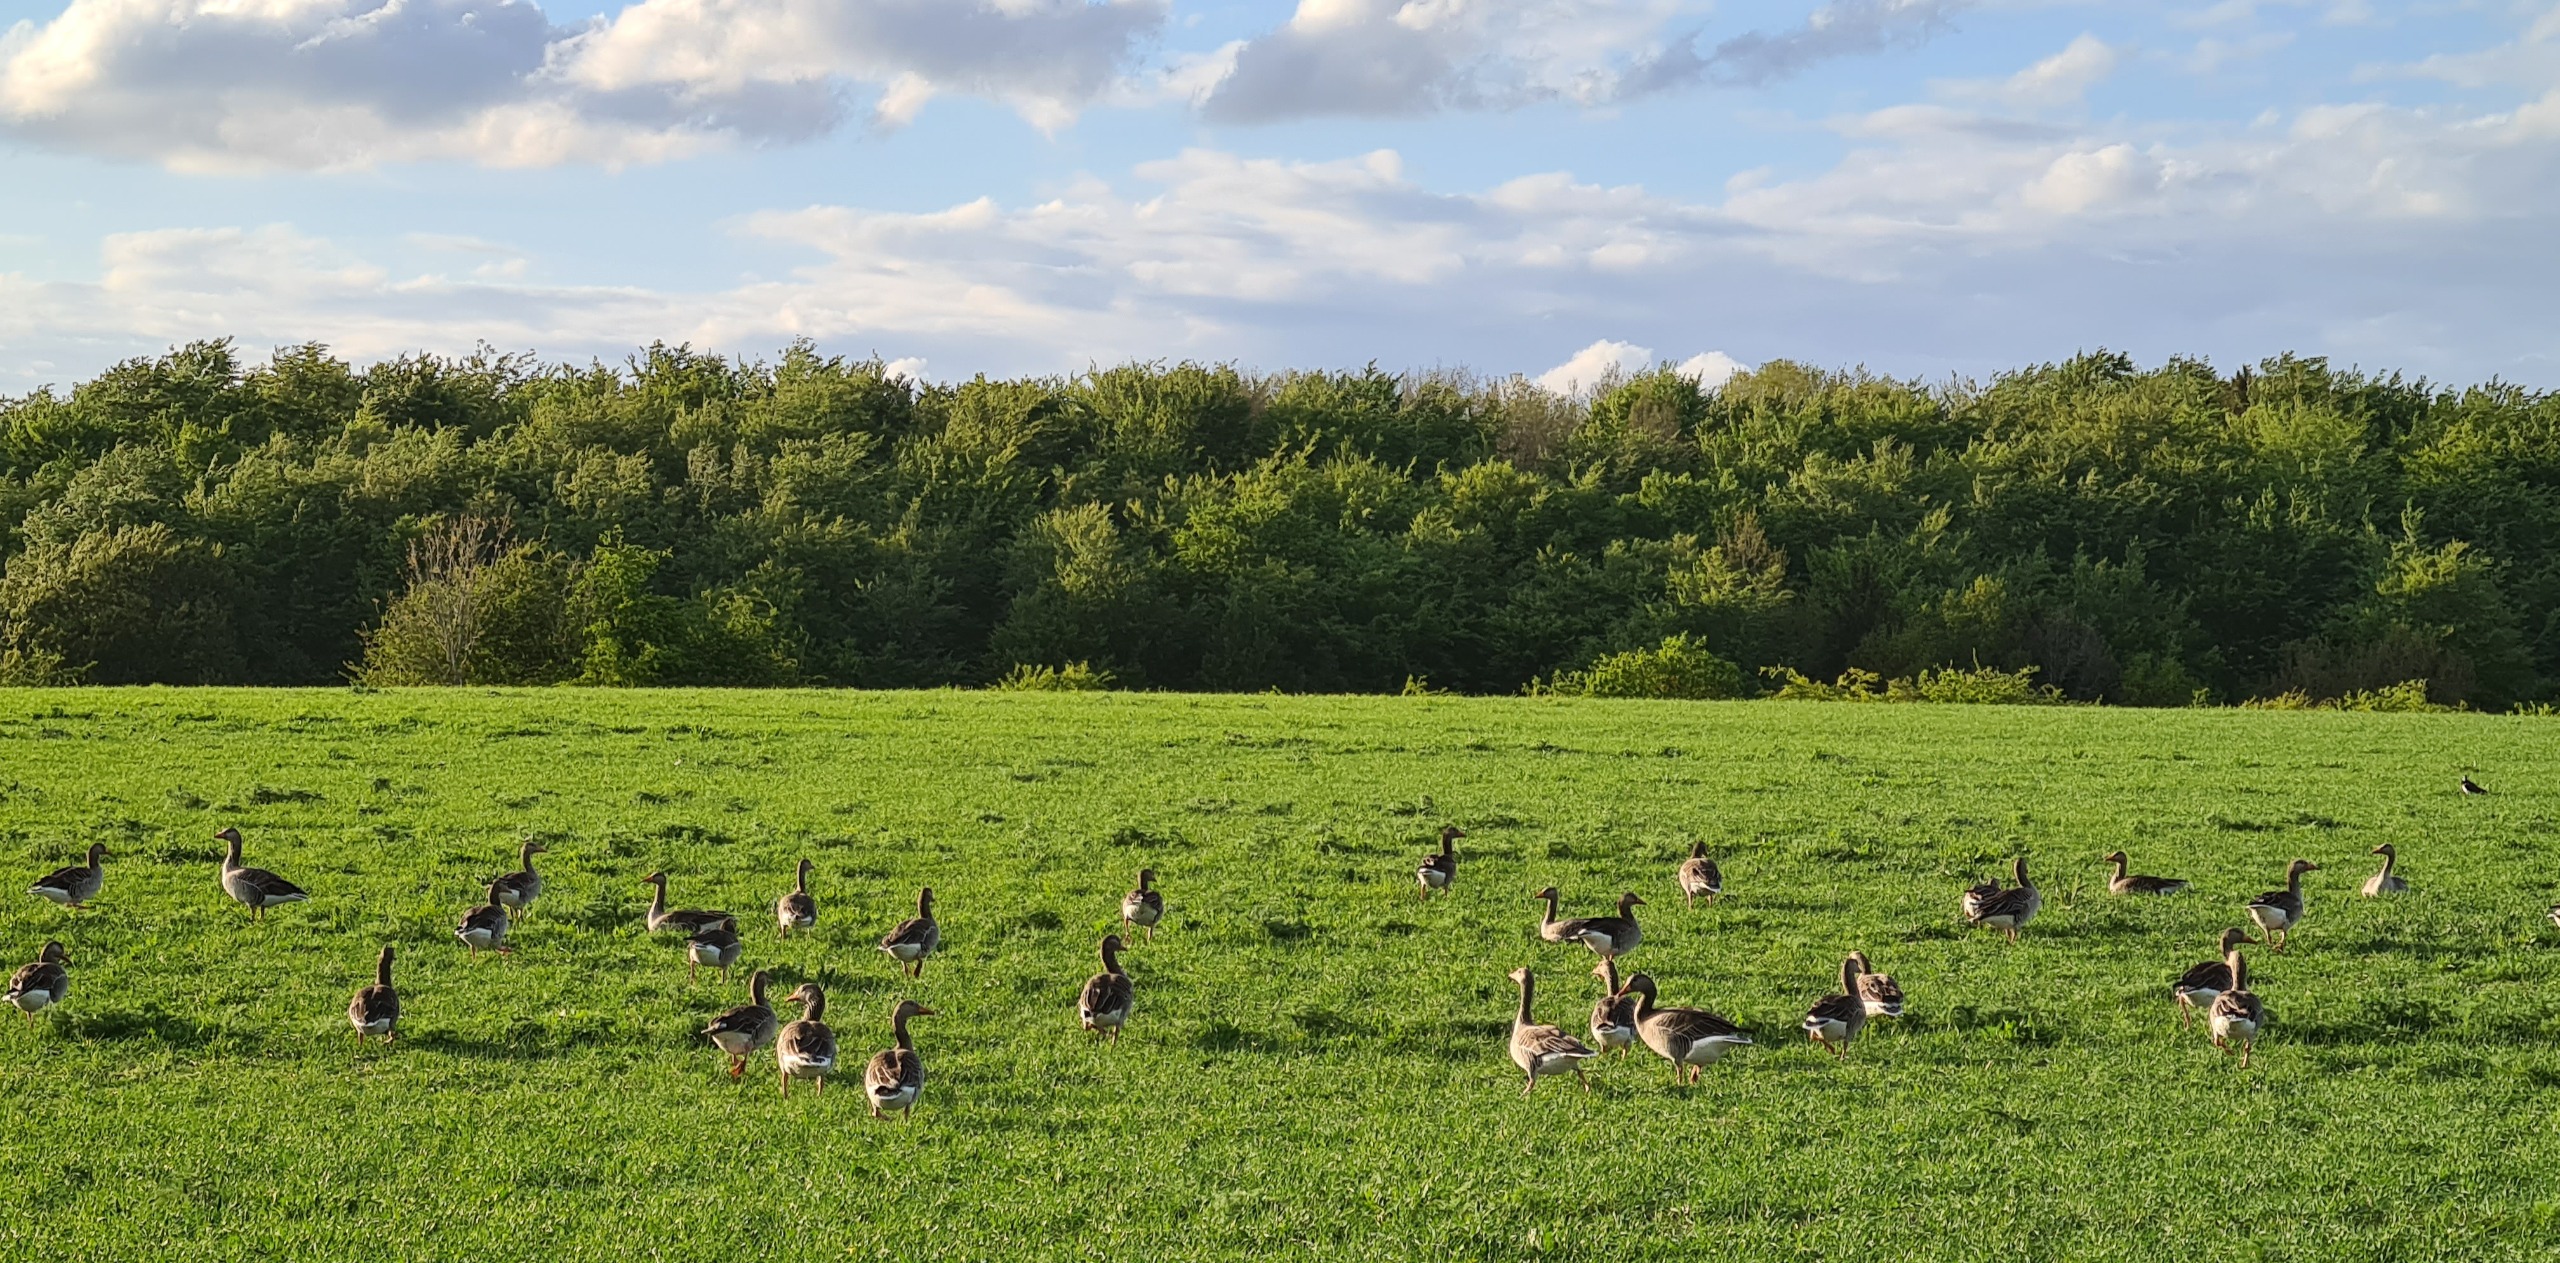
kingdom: Animalia
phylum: Chordata
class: Aves
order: Anseriformes
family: Anatidae
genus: Anser
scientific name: Anser anser
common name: Grågås
